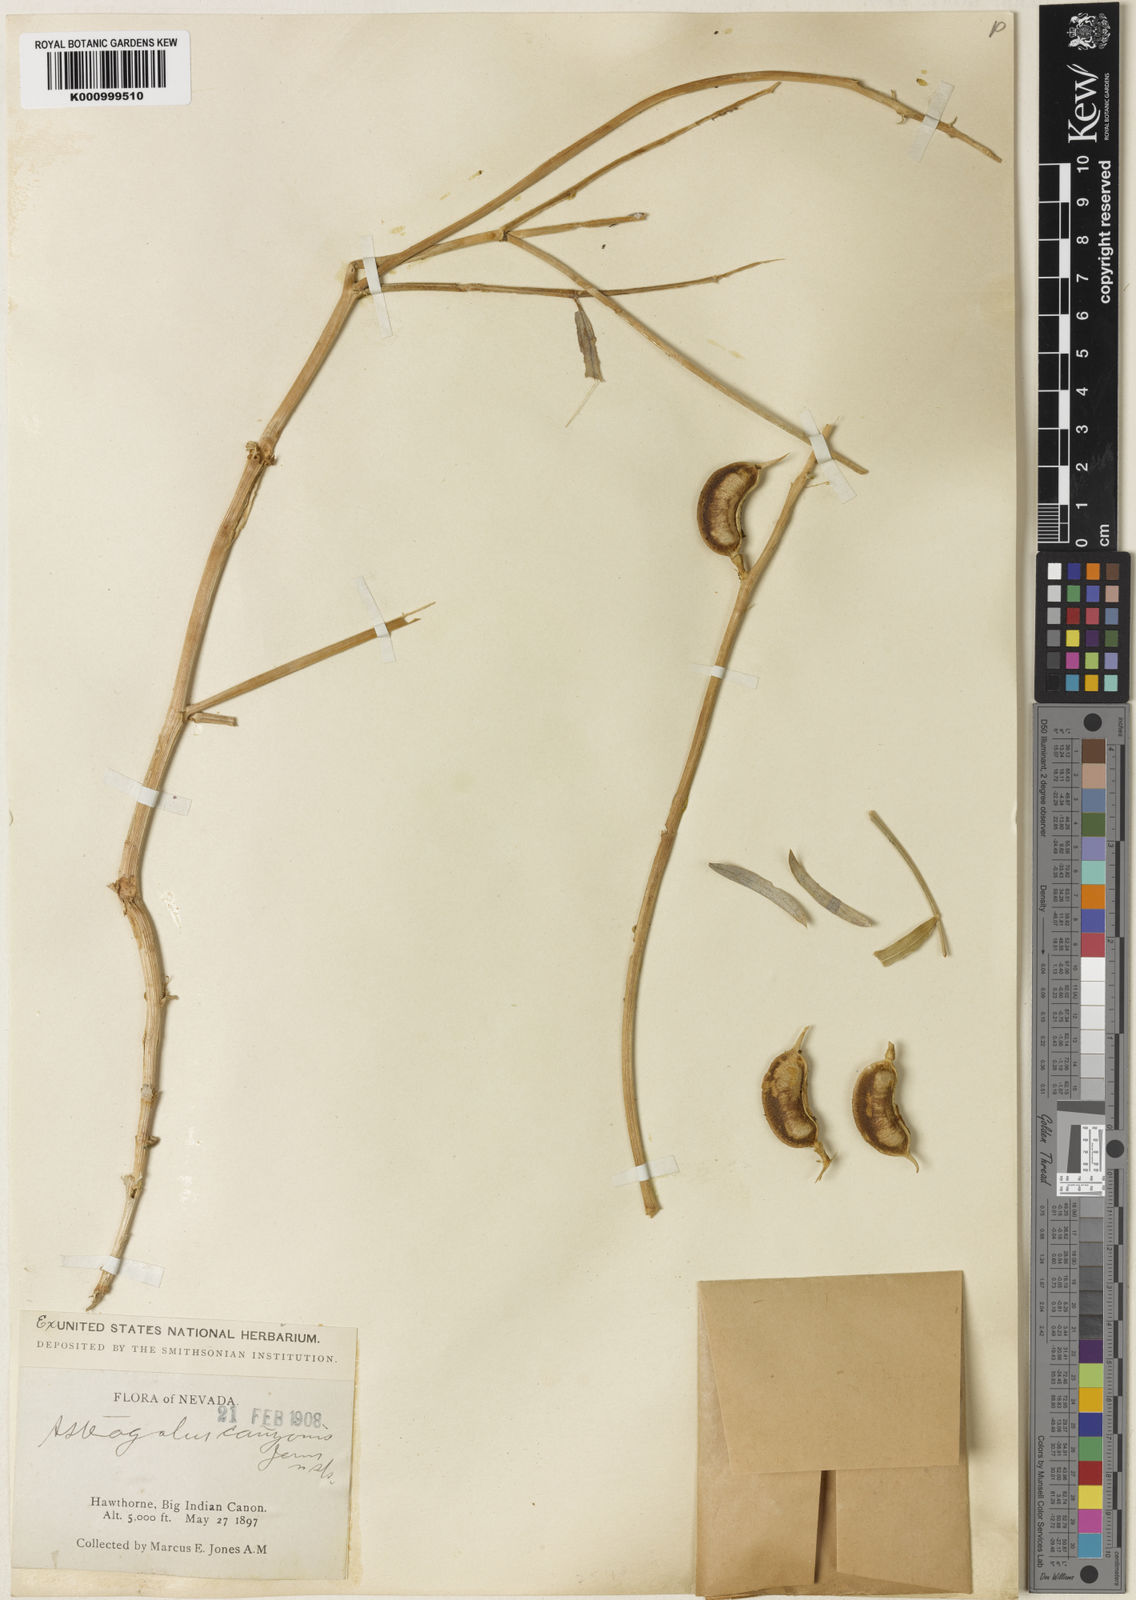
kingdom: Plantae
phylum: Tracheophyta
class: Magnoliopsida
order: Fabales
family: Fabaceae
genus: Astragalus
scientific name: Astragalus
